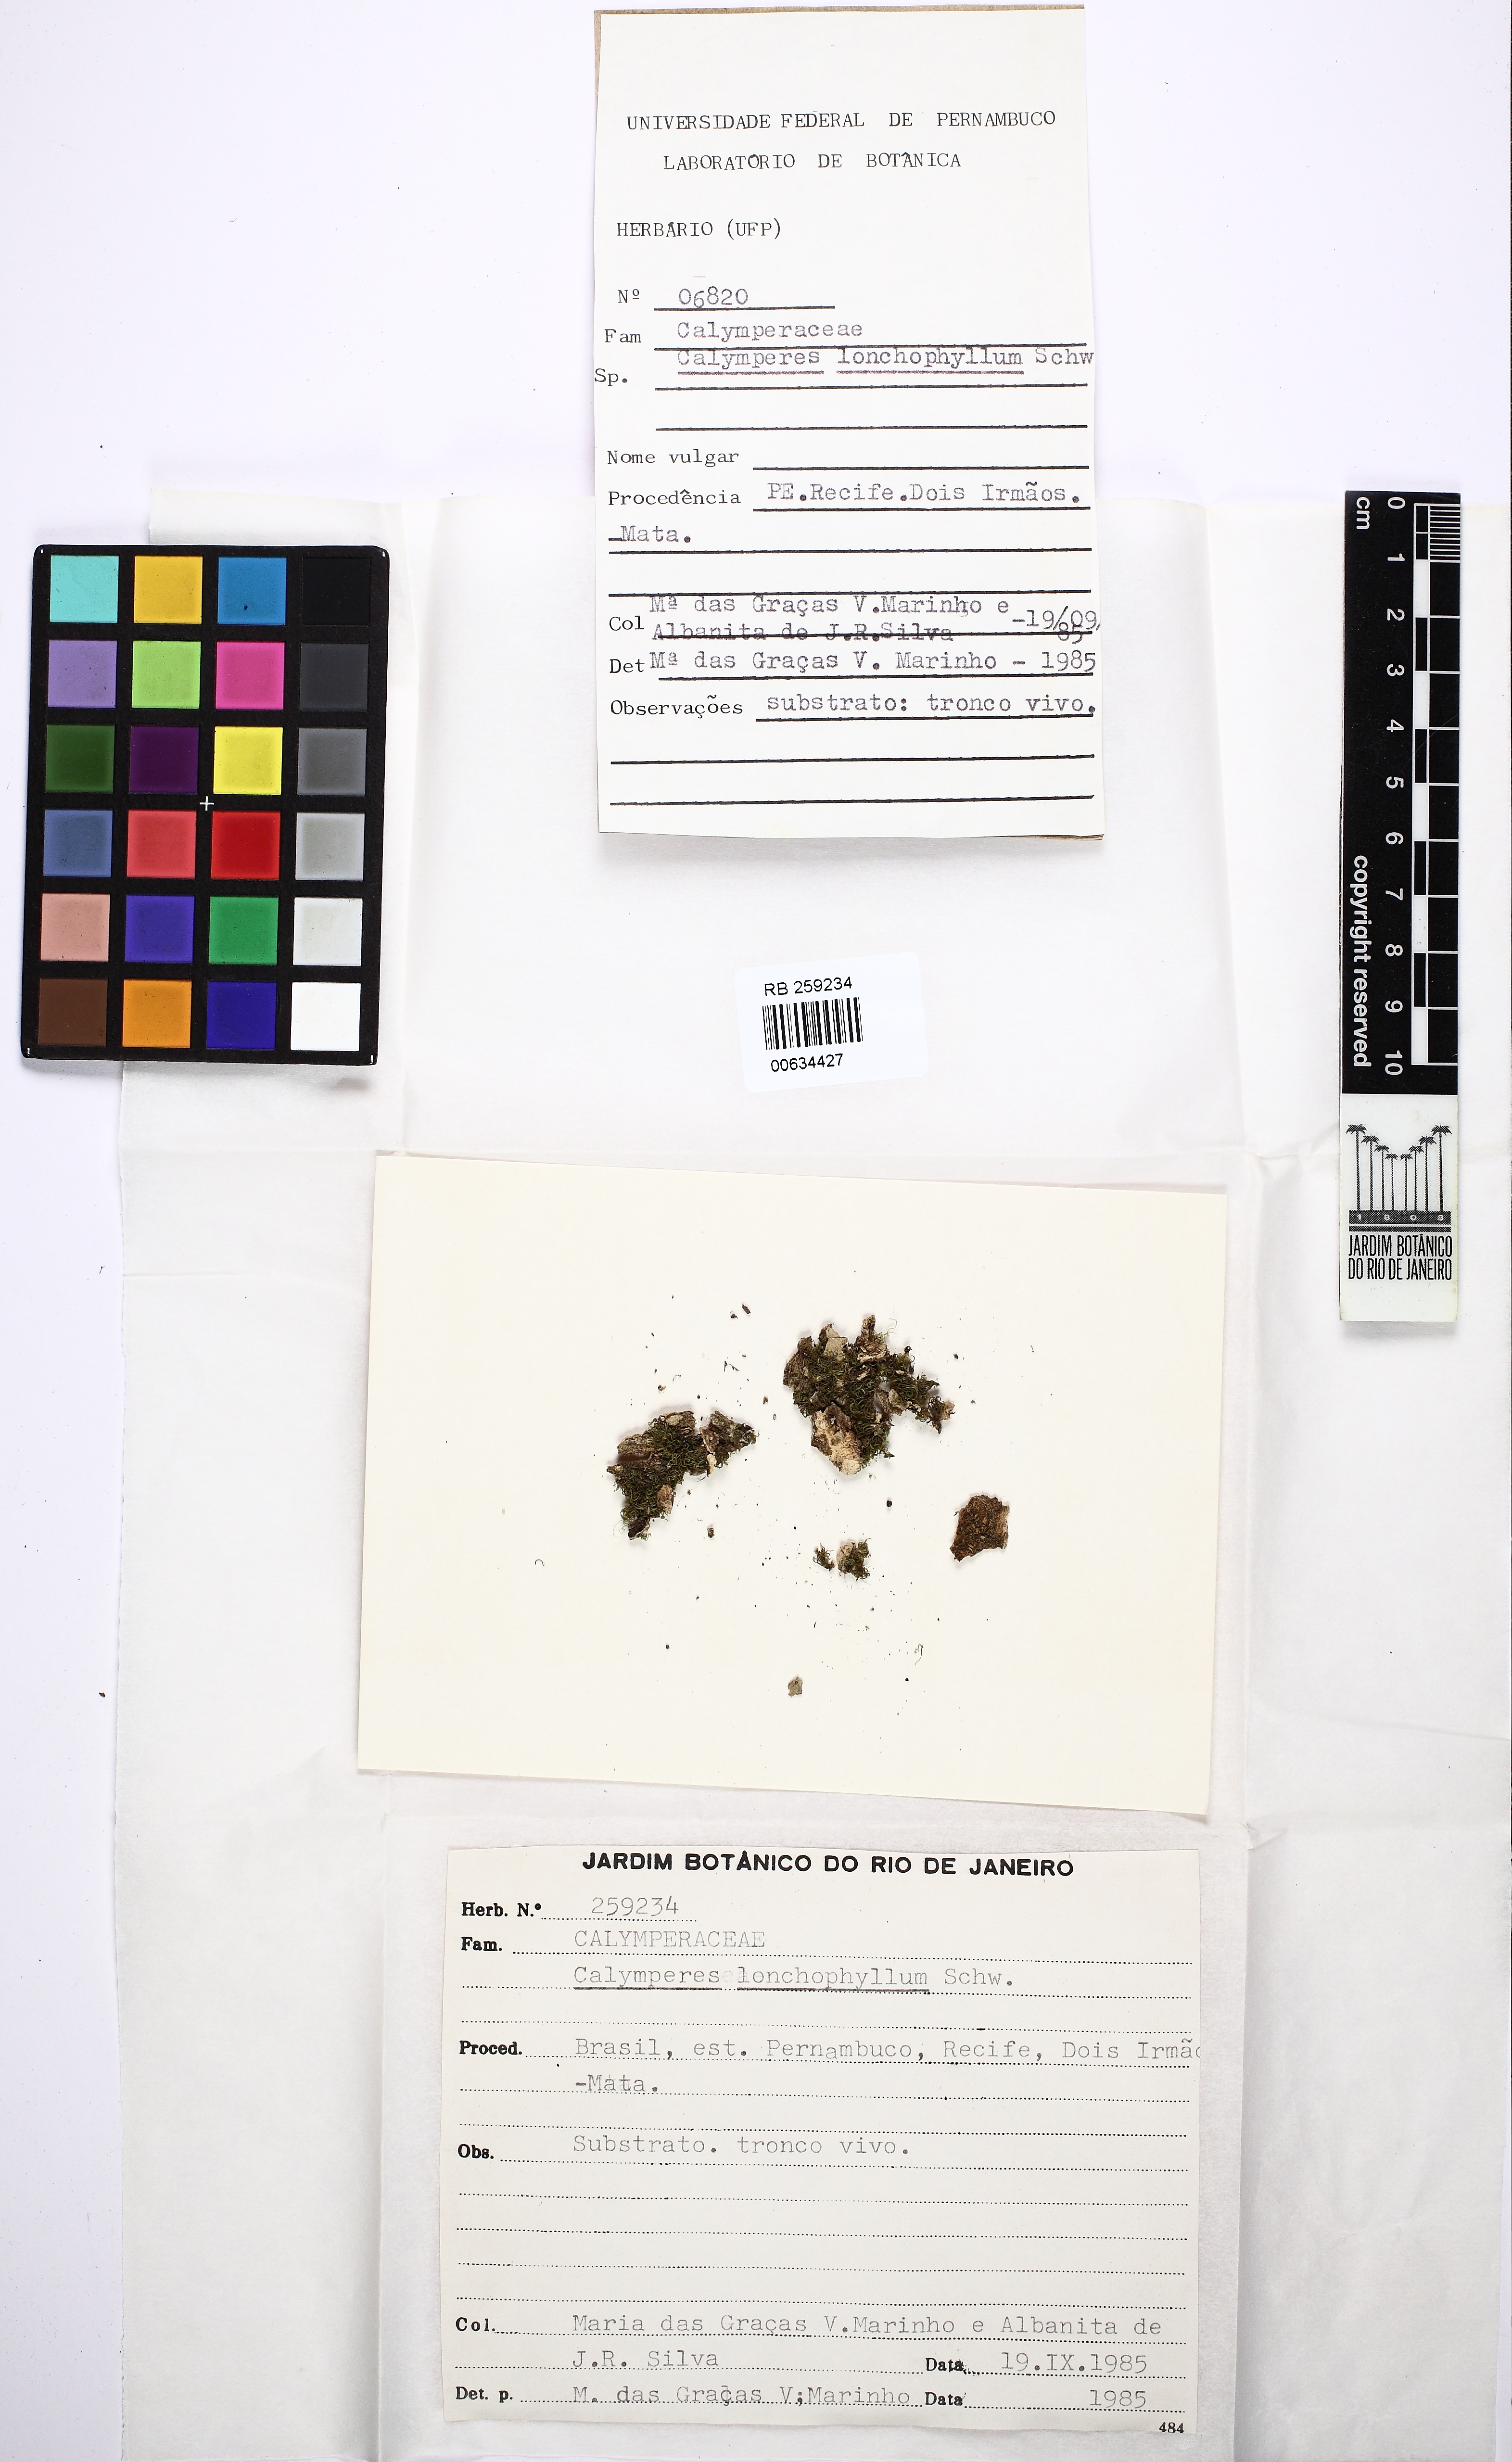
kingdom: Plantae
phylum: Bryophyta
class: Bryopsida
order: Dicranales
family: Calymperaceae
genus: Calymperes
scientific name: Calymperes lonchophyllum
